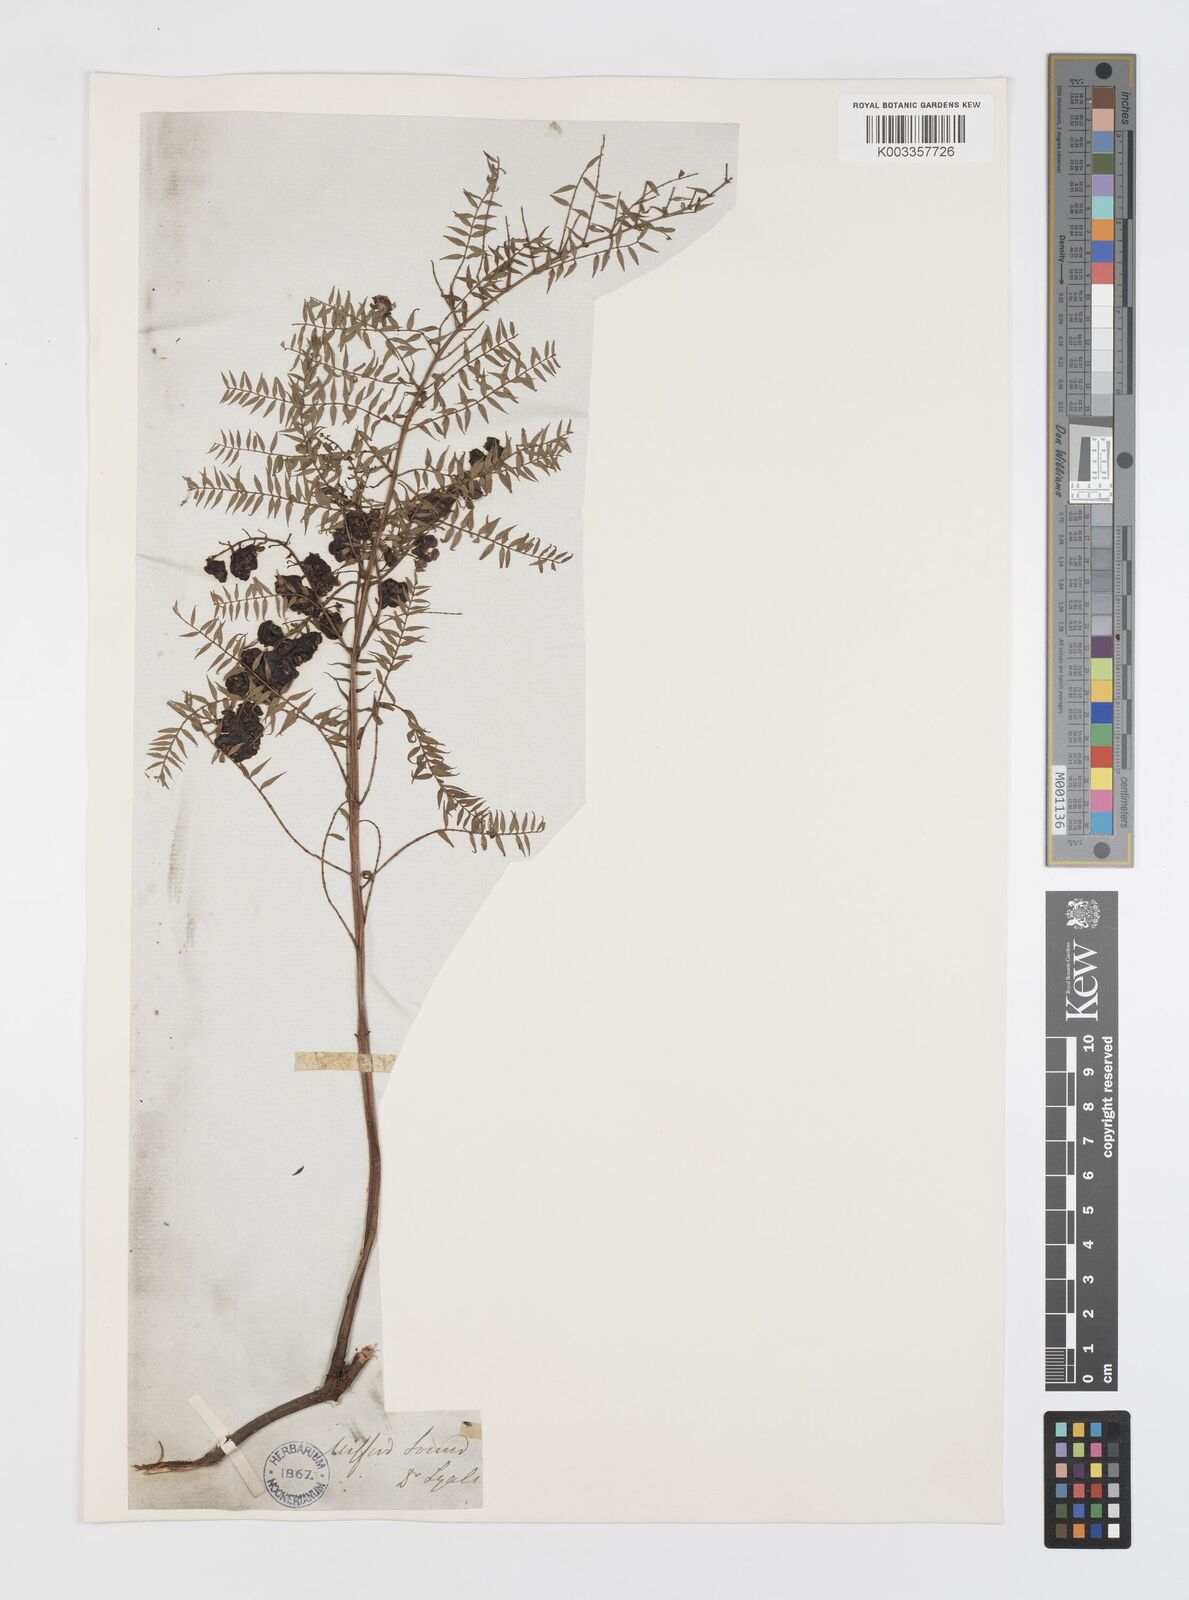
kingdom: Plantae
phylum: Tracheophyta
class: Magnoliopsida
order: Cucurbitales
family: Coriariaceae
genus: Coriaria
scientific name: Coriaria angustissima
